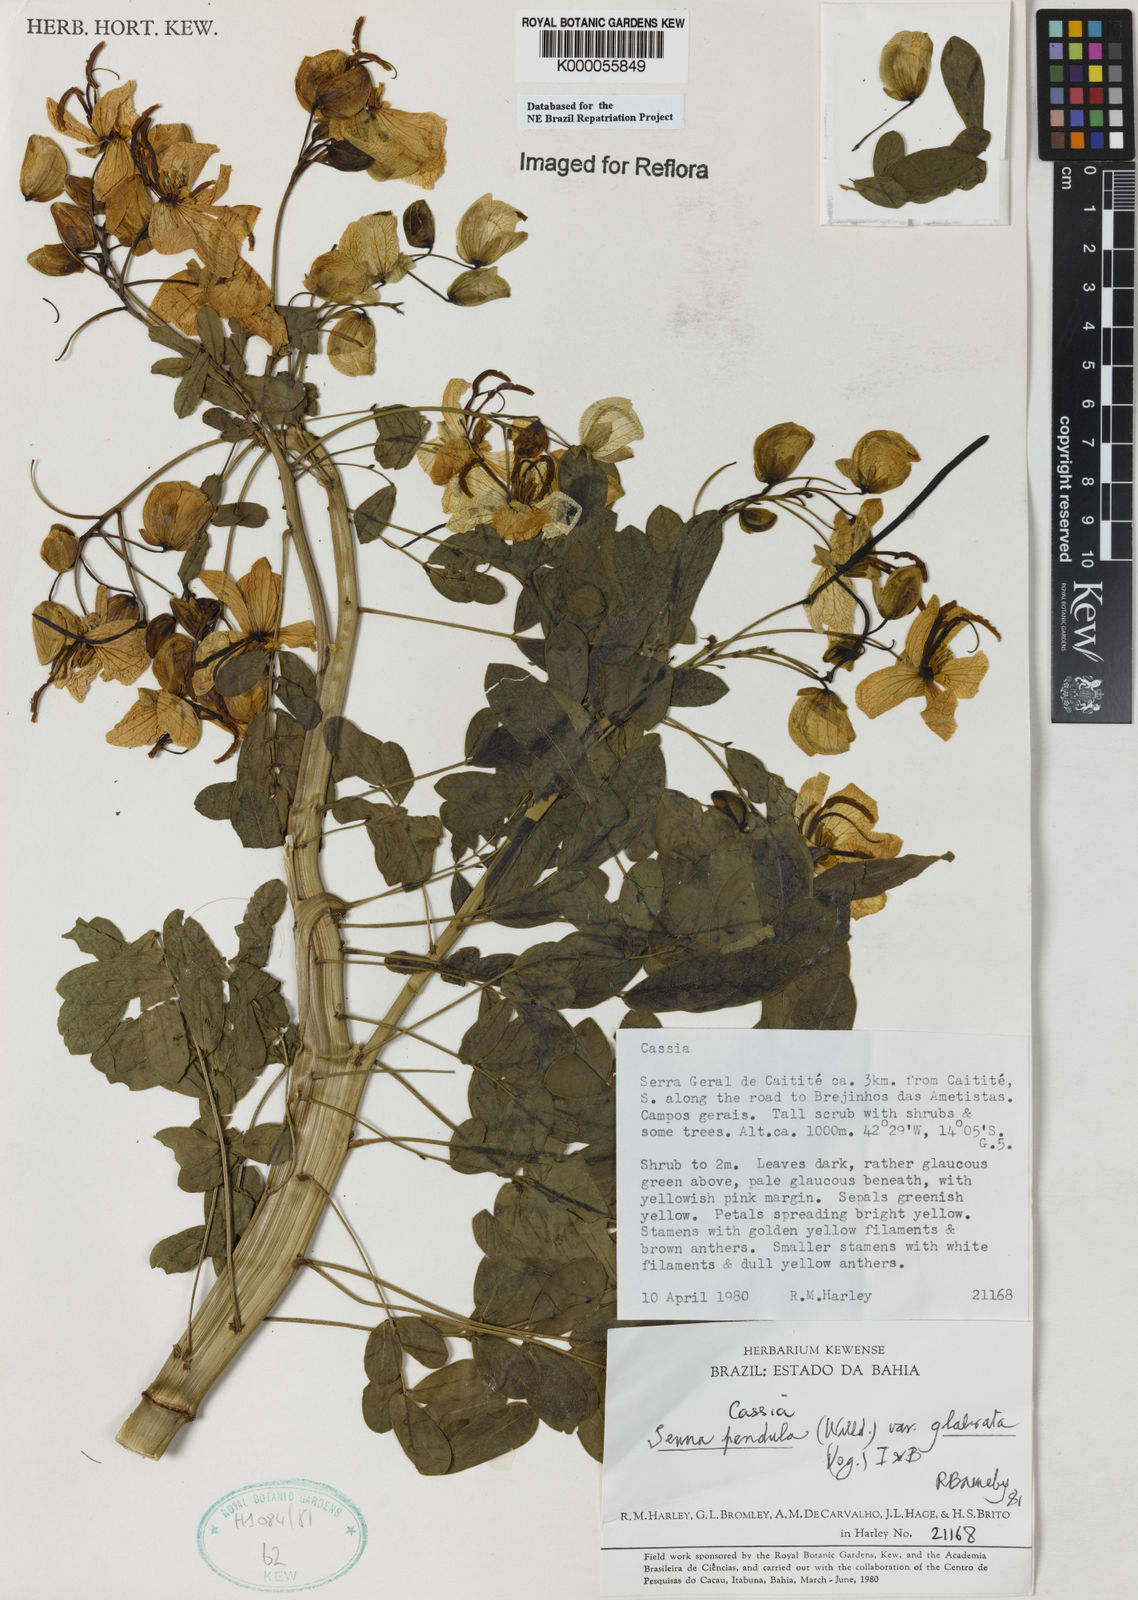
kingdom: Plantae
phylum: Tracheophyta
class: Magnoliopsida
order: Fabales
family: Fabaceae
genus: Senna
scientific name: Senna pendula
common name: Easter cassia
